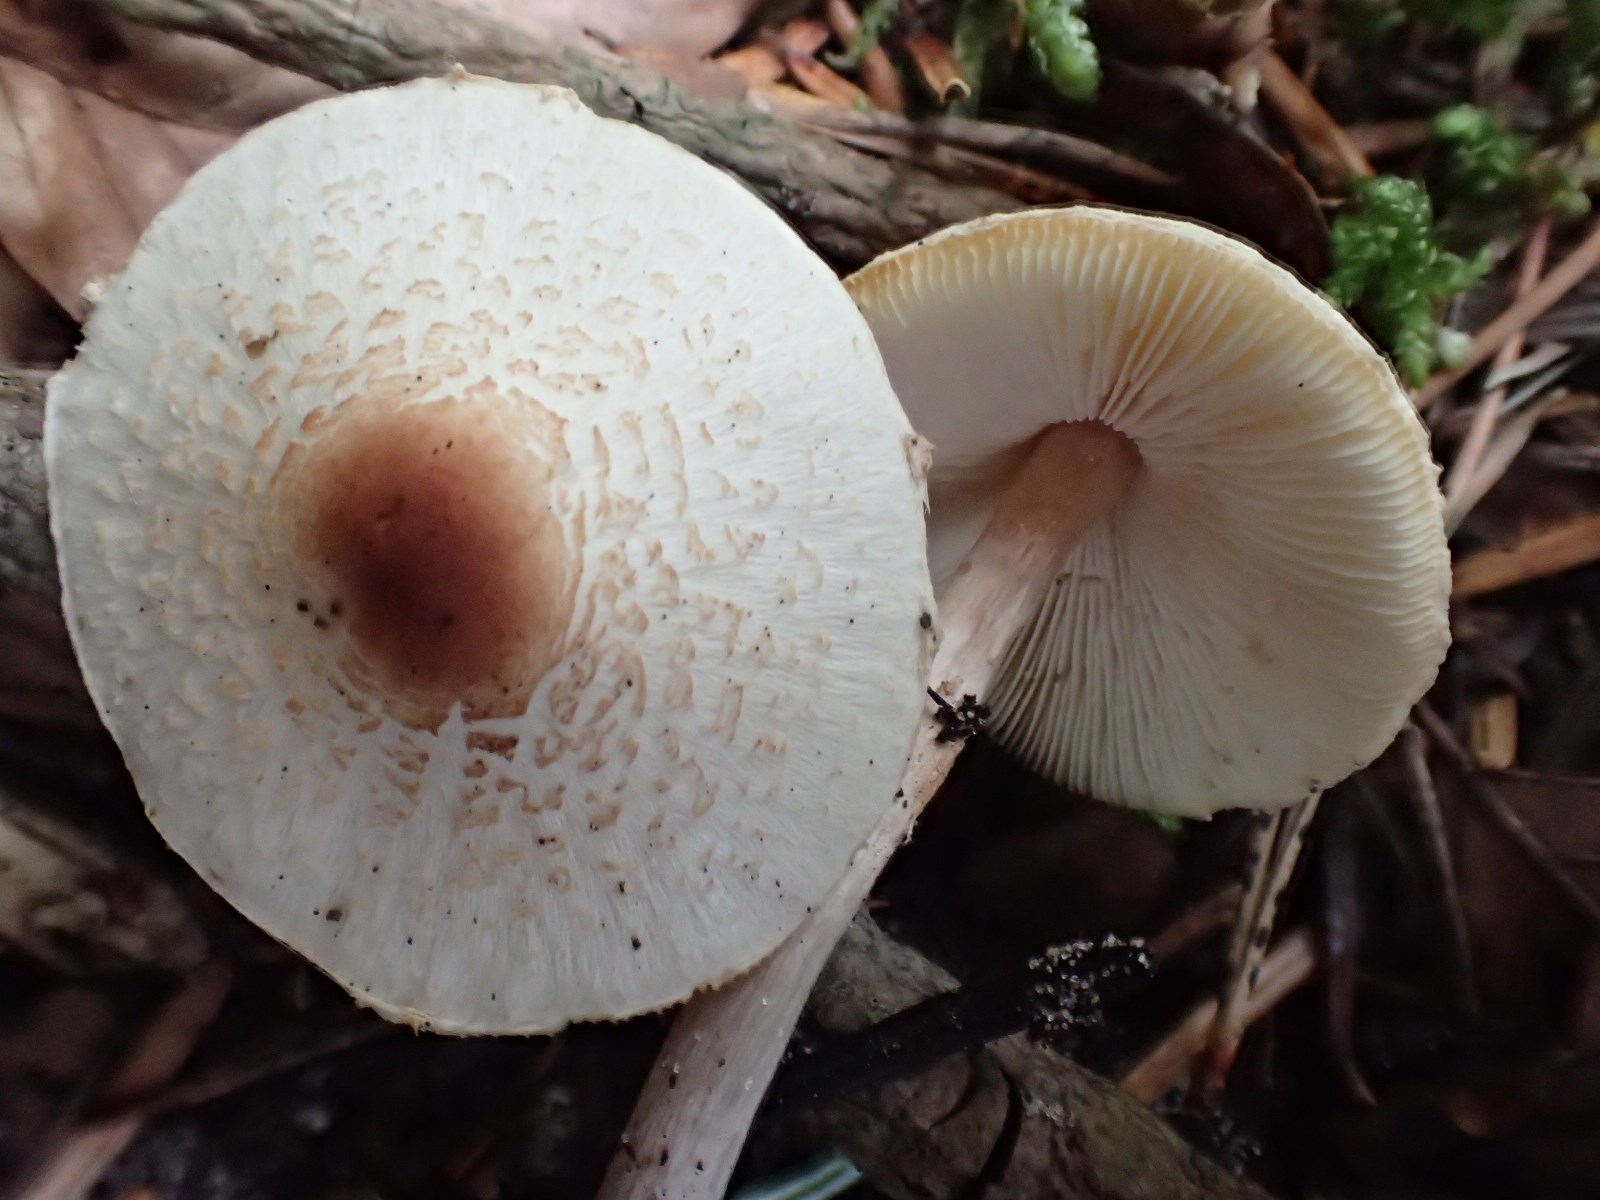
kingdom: Fungi
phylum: Basidiomycota
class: Agaricomycetes
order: Agaricales
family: Agaricaceae
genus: Lepiota
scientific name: Lepiota cristata
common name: stinkende parasolhat
